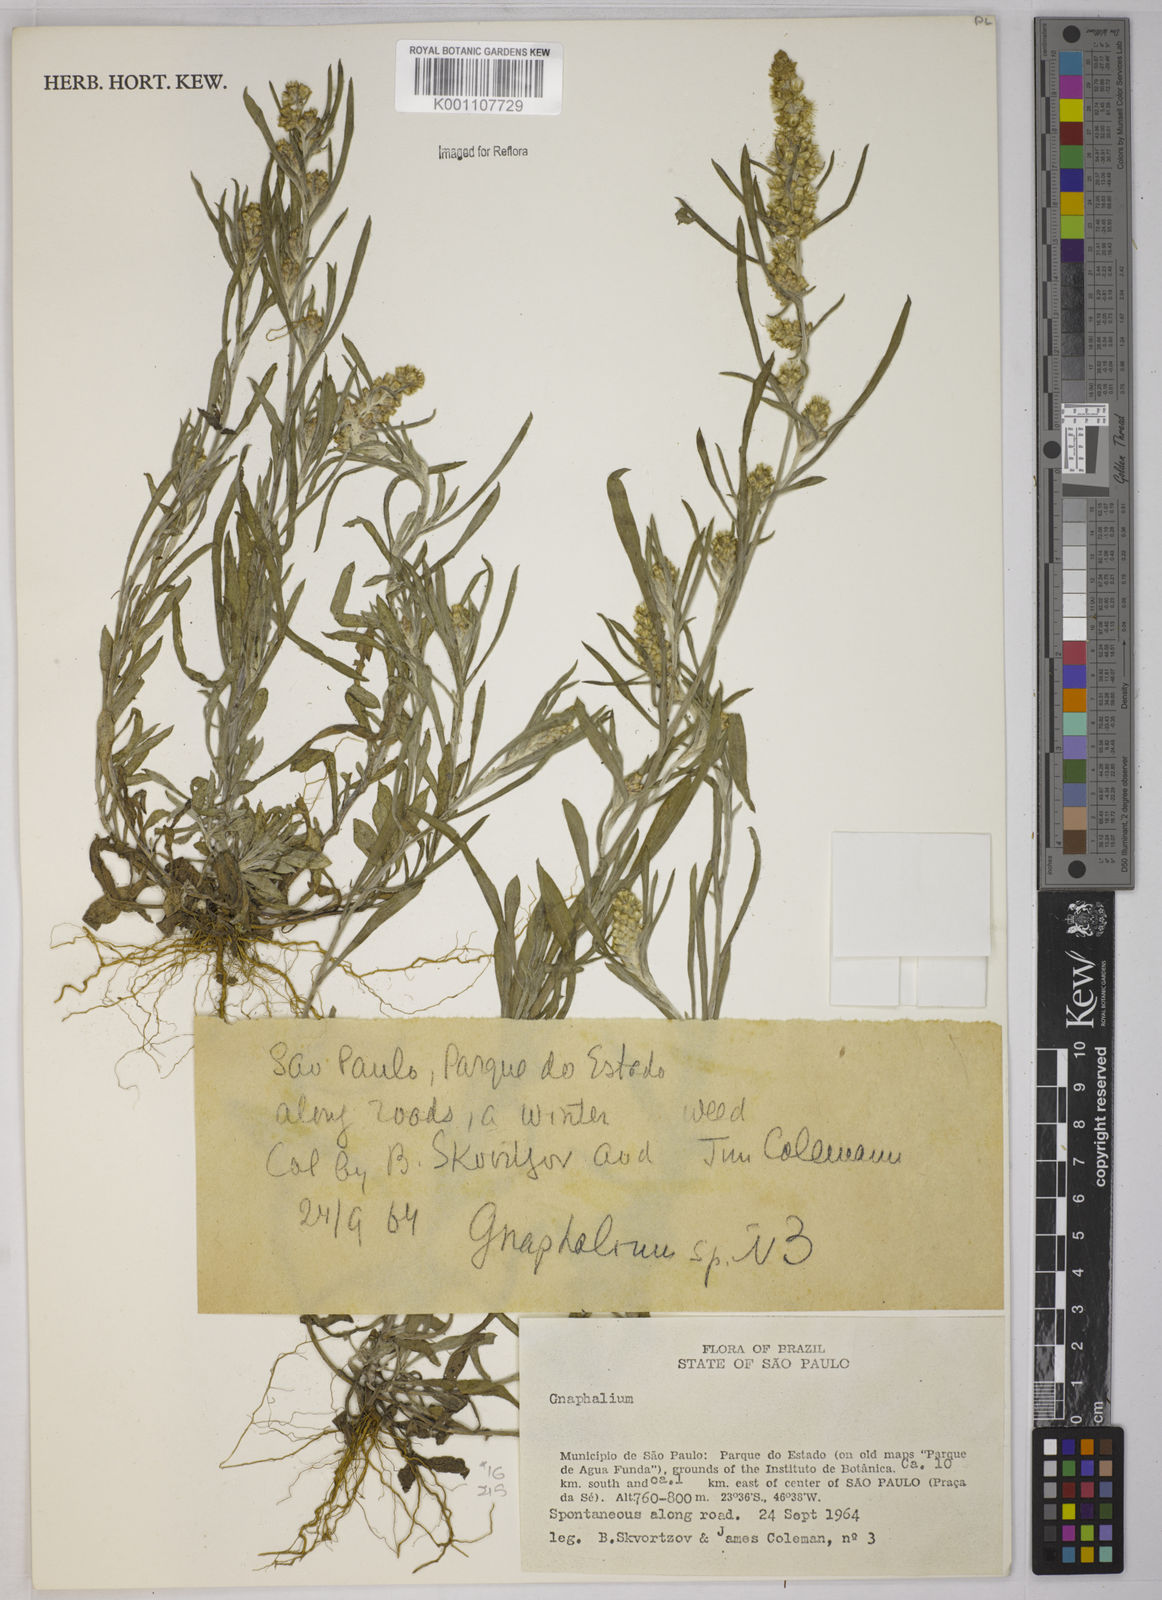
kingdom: Plantae
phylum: Tracheophyta
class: Magnoliopsida
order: Asterales
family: Asteraceae
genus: Gnaphalium
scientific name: Gnaphalium
